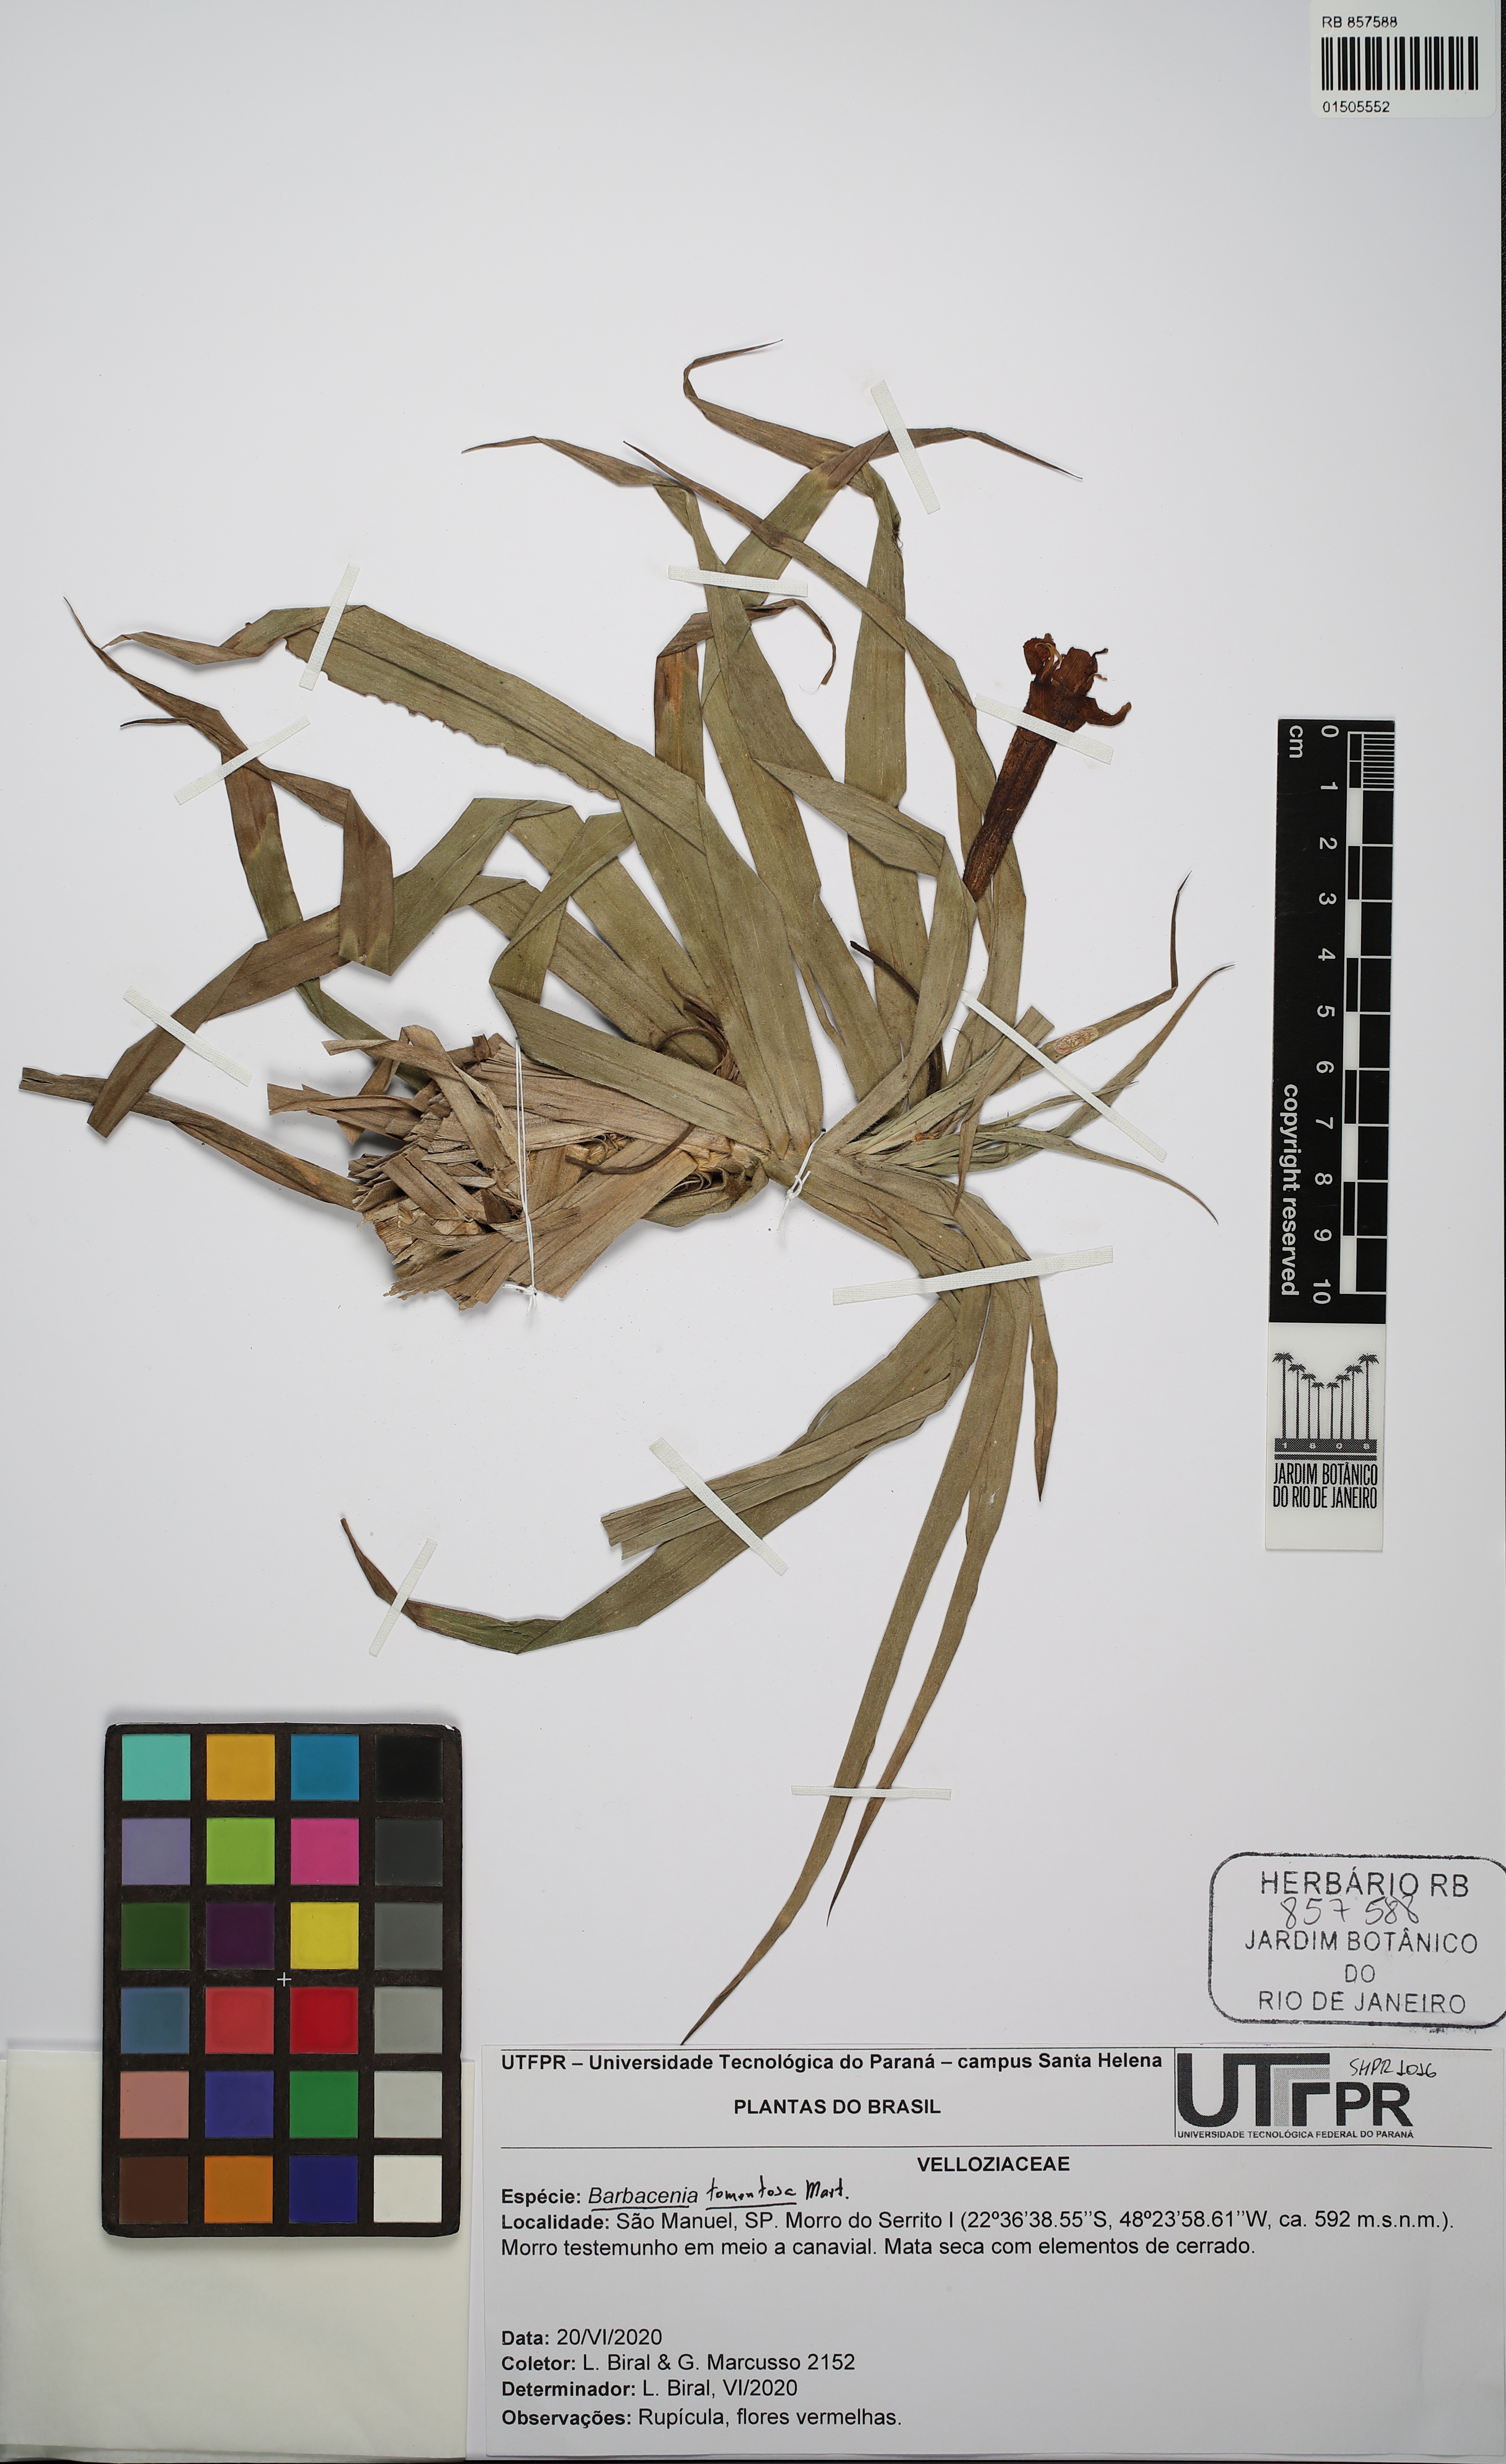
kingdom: Plantae
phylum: Tracheophyta
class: Liliopsida
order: Pandanales
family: Velloziaceae
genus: Barbacenia
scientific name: Barbacenia tomentosa
